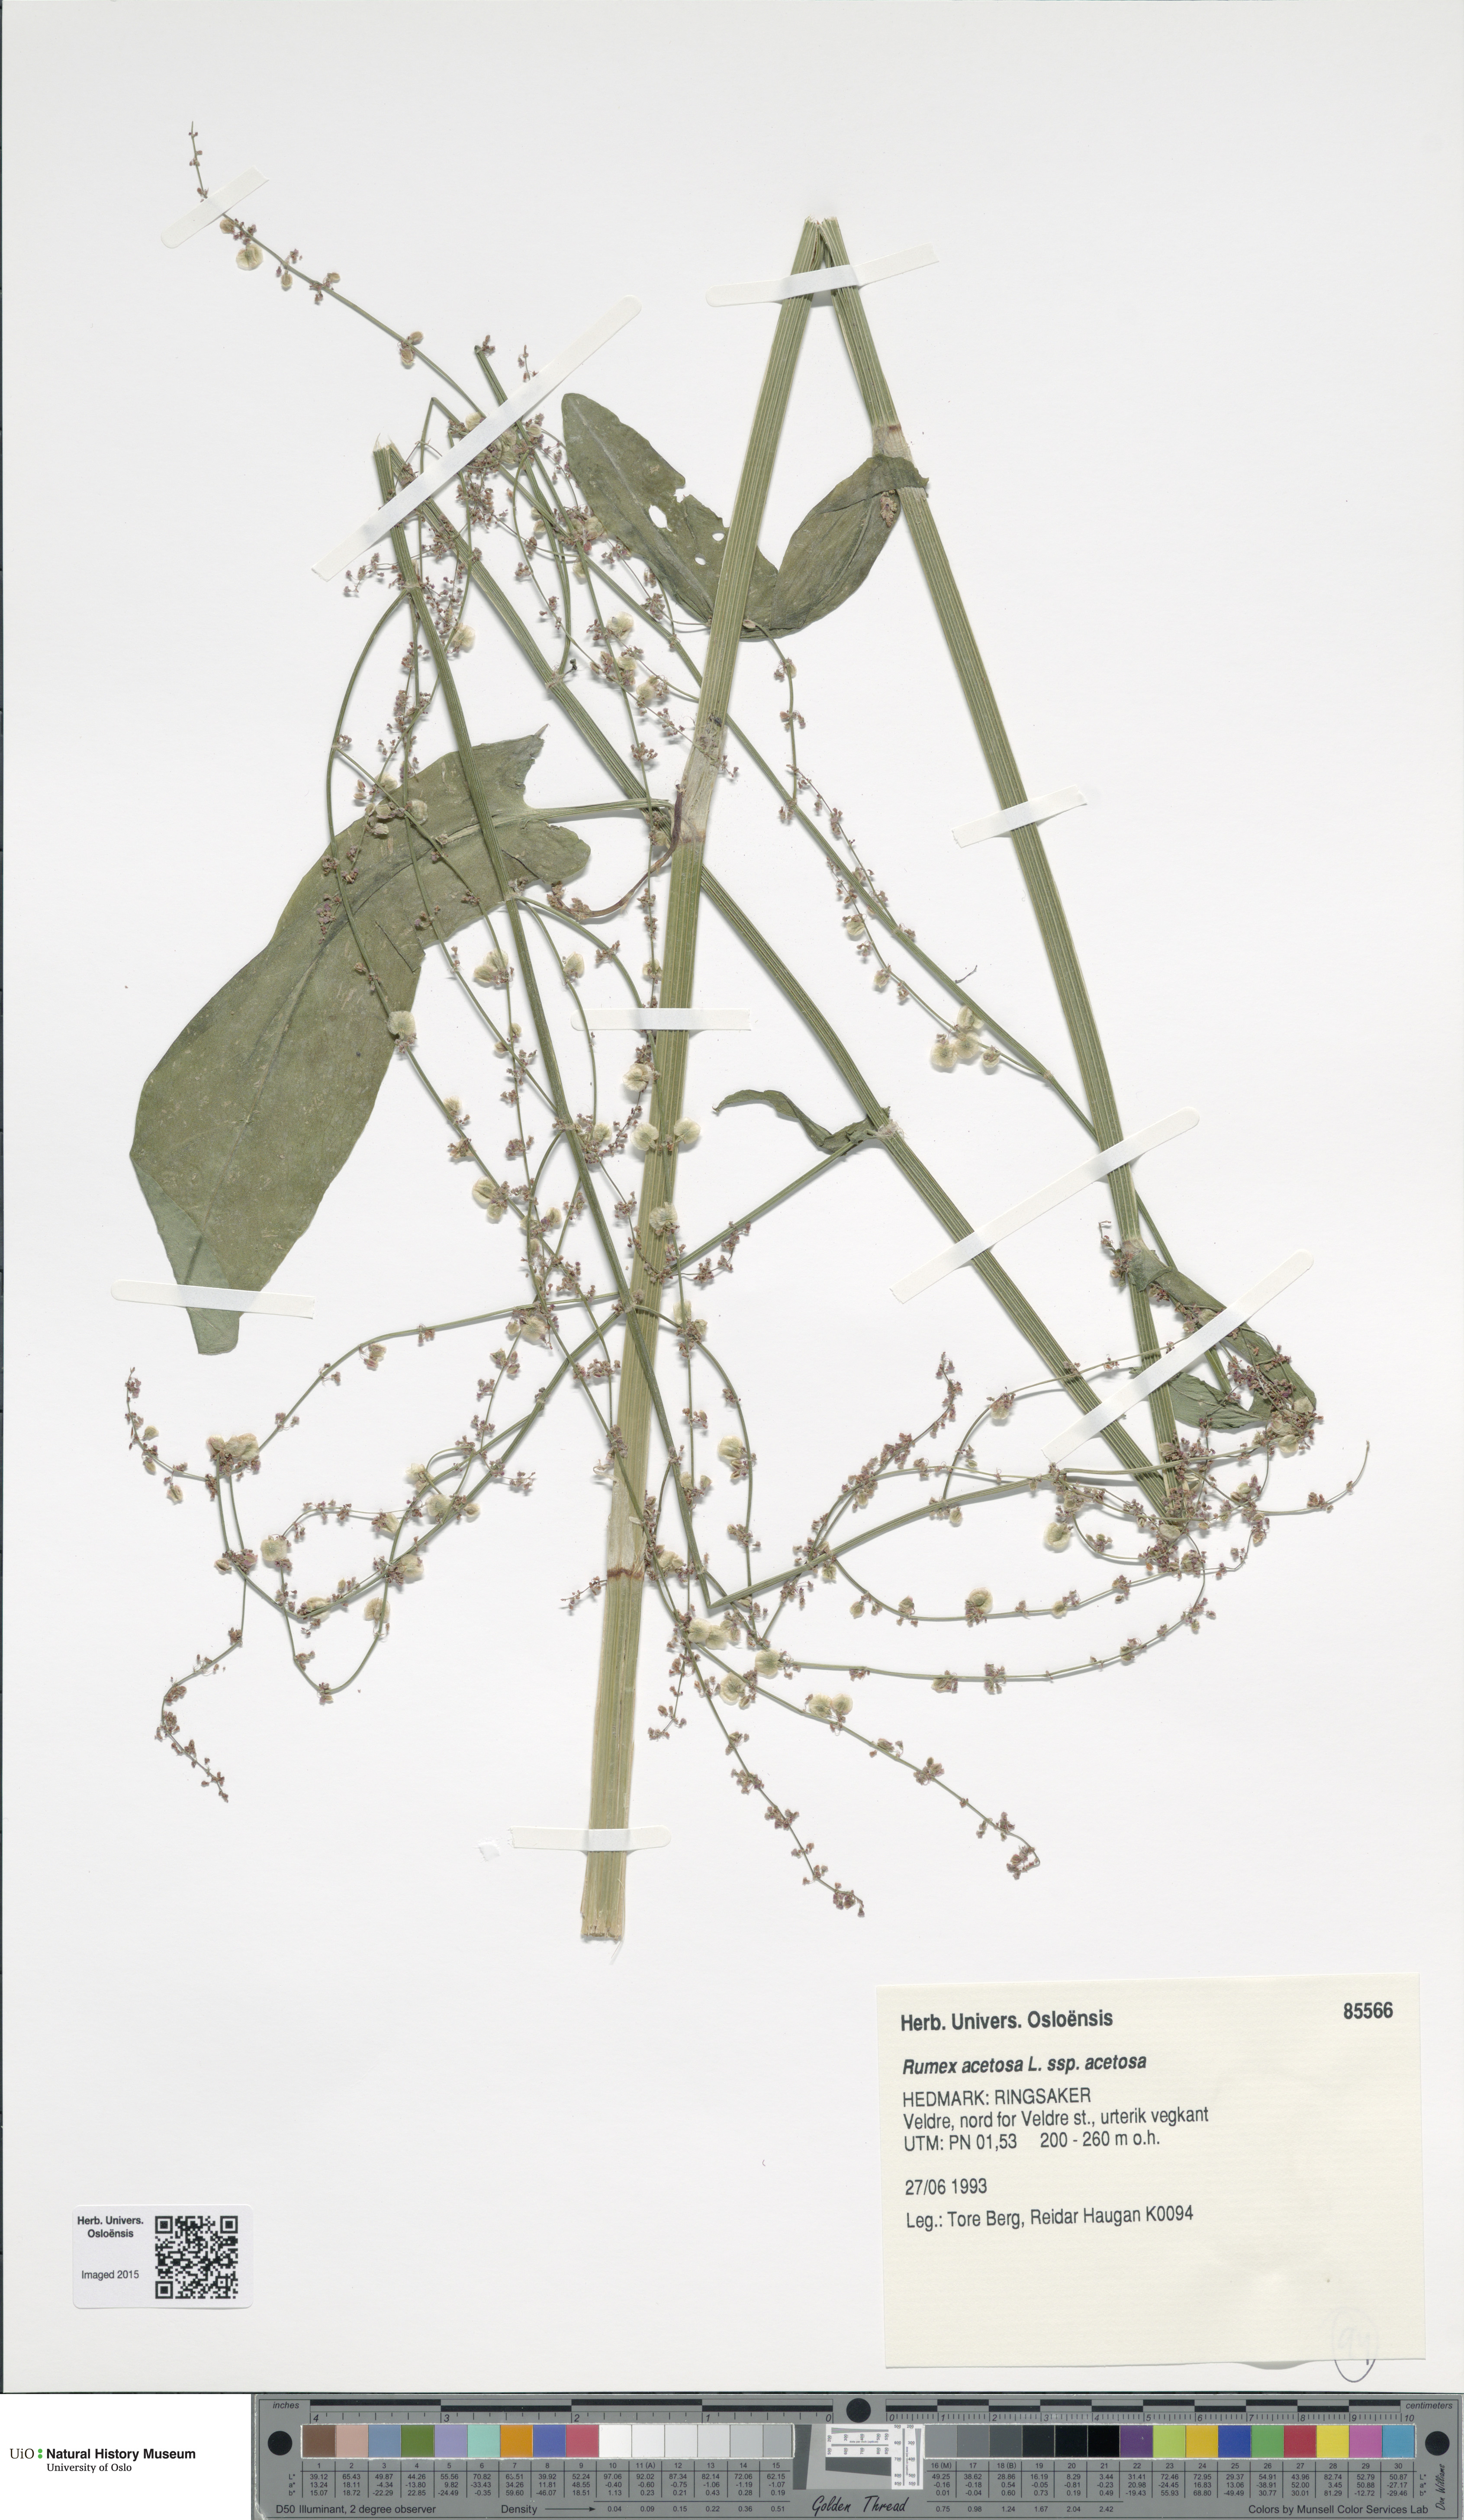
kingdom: Plantae
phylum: Tracheophyta
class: Magnoliopsida
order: Caryophyllales
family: Polygonaceae
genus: Rumex
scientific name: Rumex acetosa
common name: Garden sorrel
